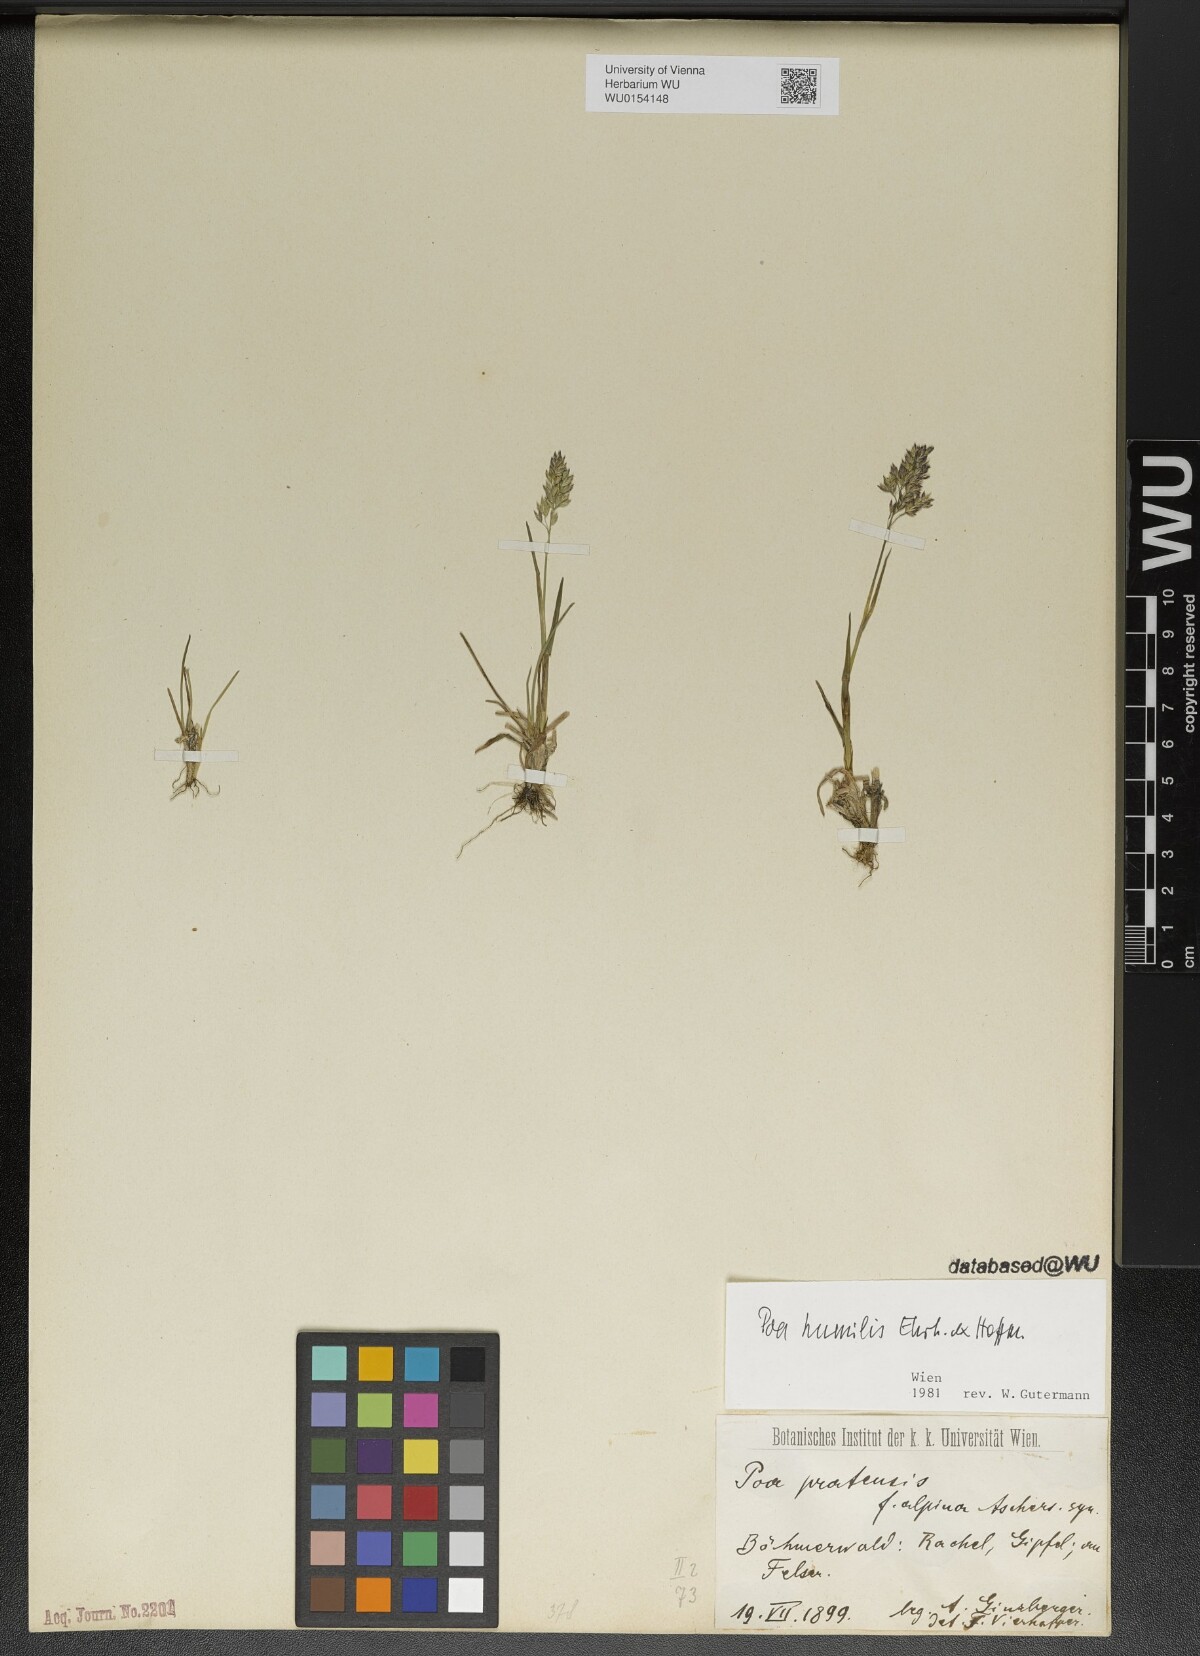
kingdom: Plantae
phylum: Tracheophyta
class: Liliopsida
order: Poales
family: Poaceae
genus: Poa
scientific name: Poa humilis
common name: Spreading meadow-grass
